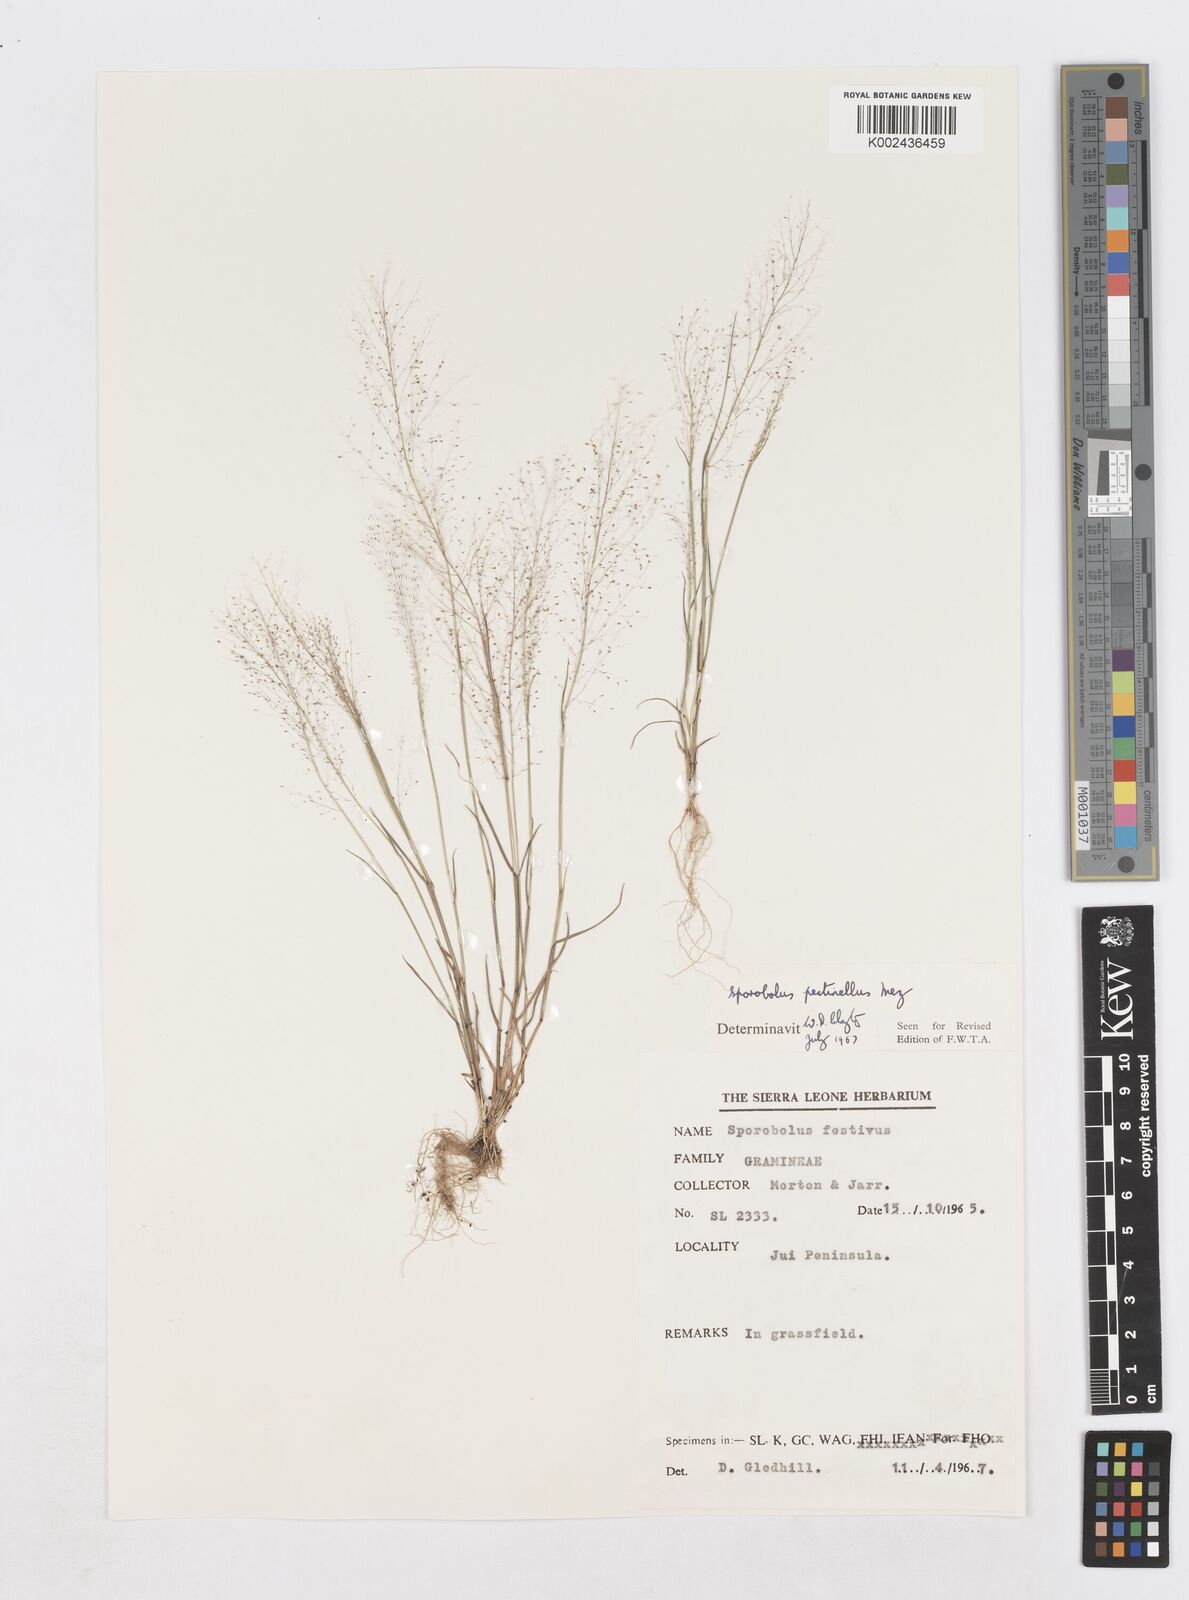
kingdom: Plantae
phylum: Tracheophyta
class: Liliopsida
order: Poales
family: Poaceae
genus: Sporobolus
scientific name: Sporobolus pectinellus
